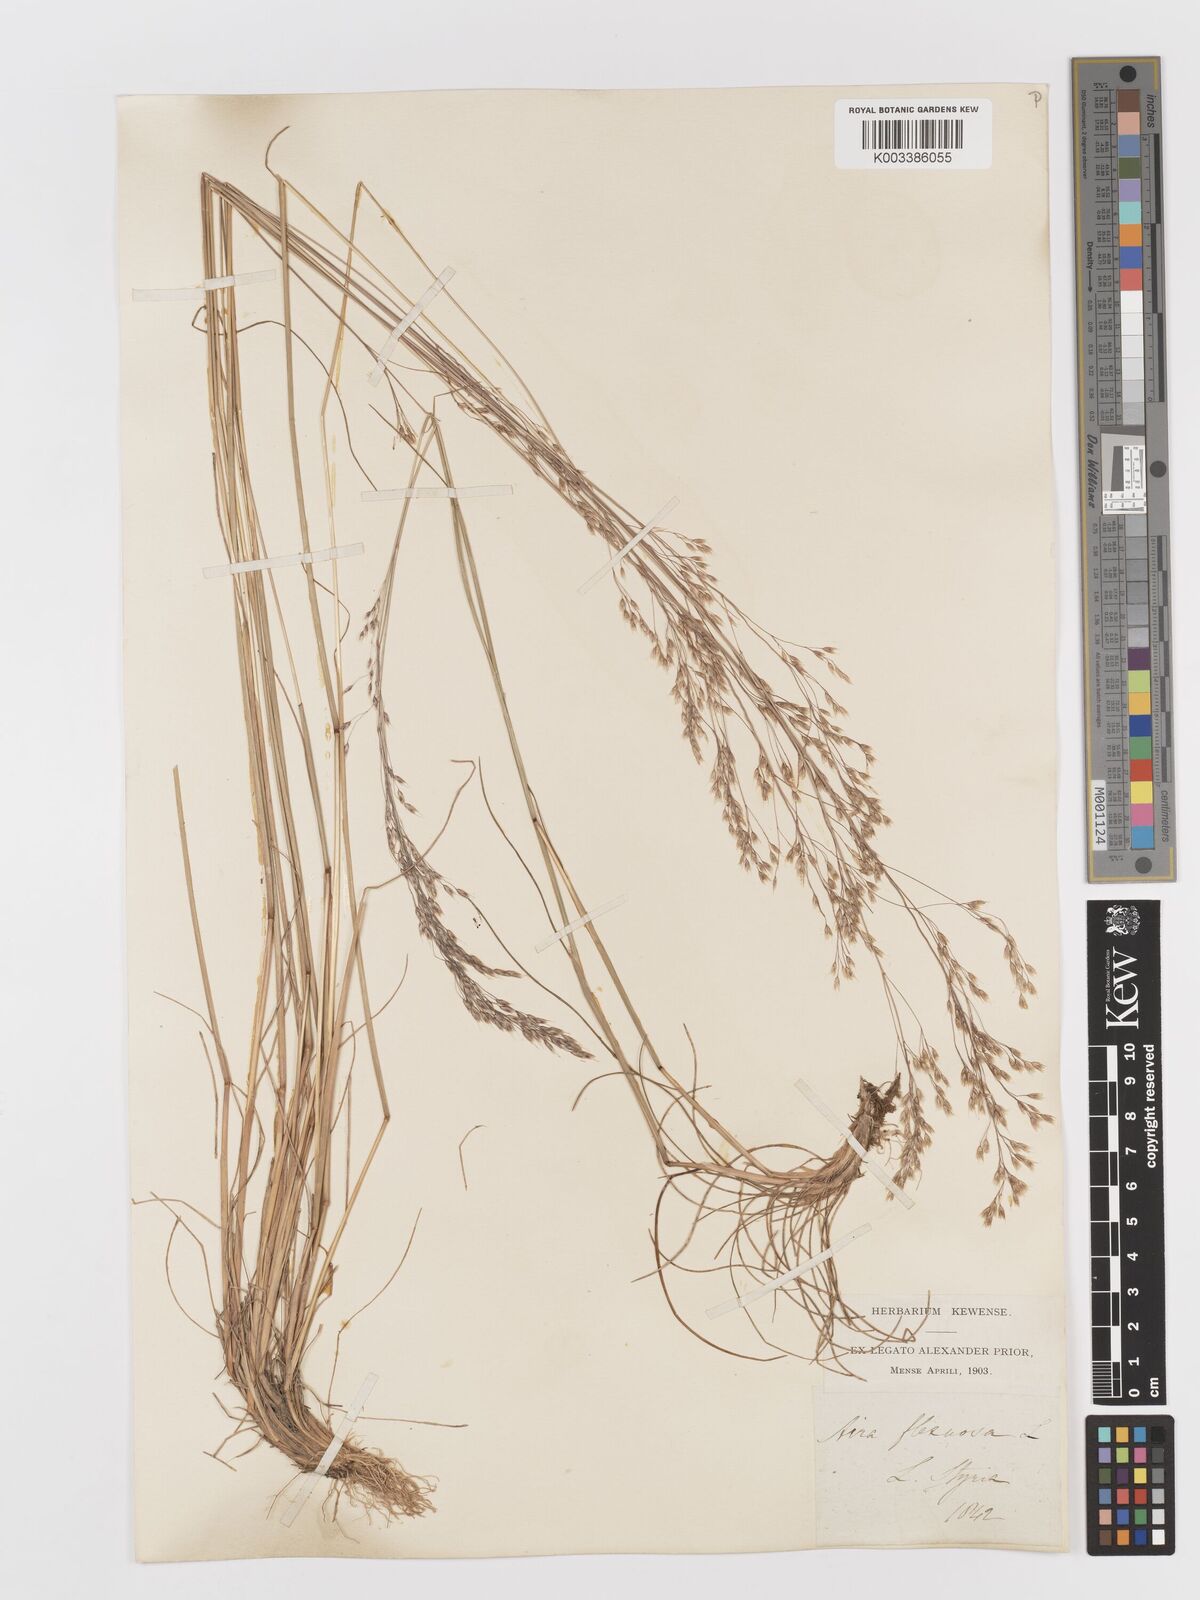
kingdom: Plantae
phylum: Tracheophyta
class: Liliopsida
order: Poales
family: Poaceae
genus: Avenella
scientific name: Avenella flexuosa
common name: Wavy hairgrass
